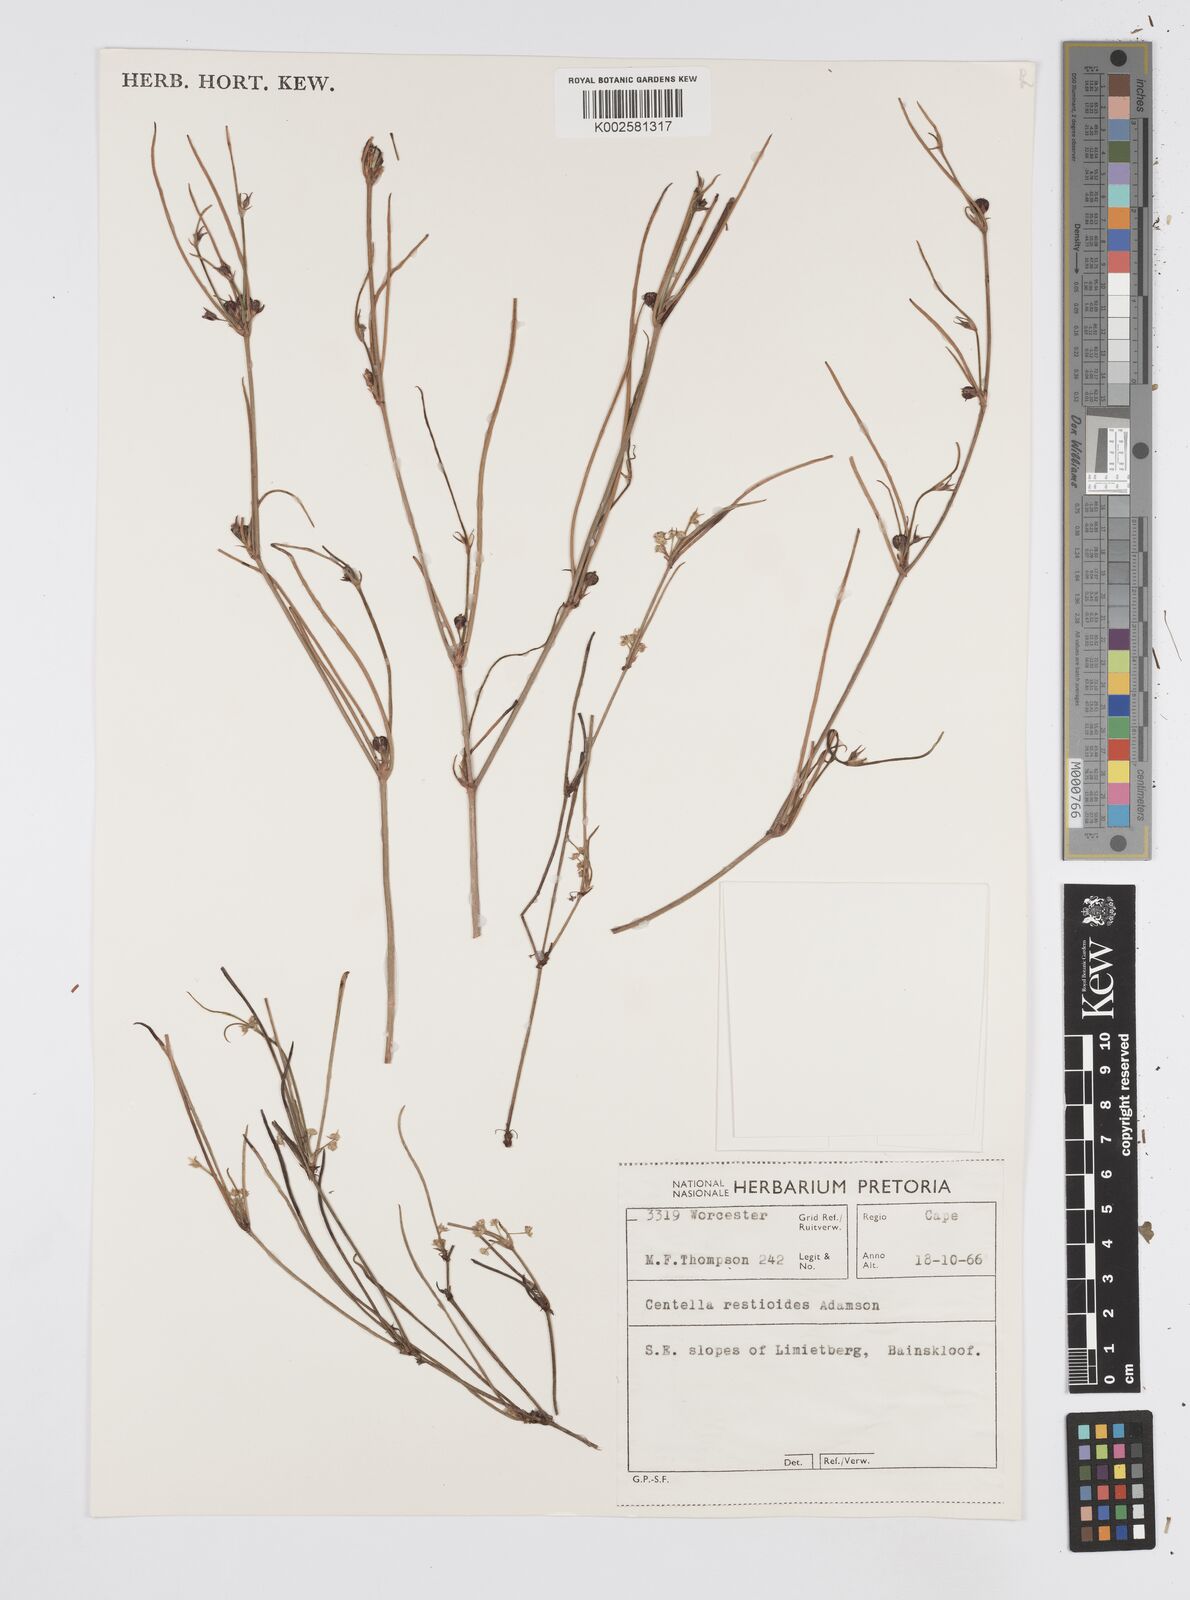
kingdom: Plantae
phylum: Tracheophyta
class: Magnoliopsida
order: Apiales
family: Apiaceae
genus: Centella
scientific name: Centella restioides
